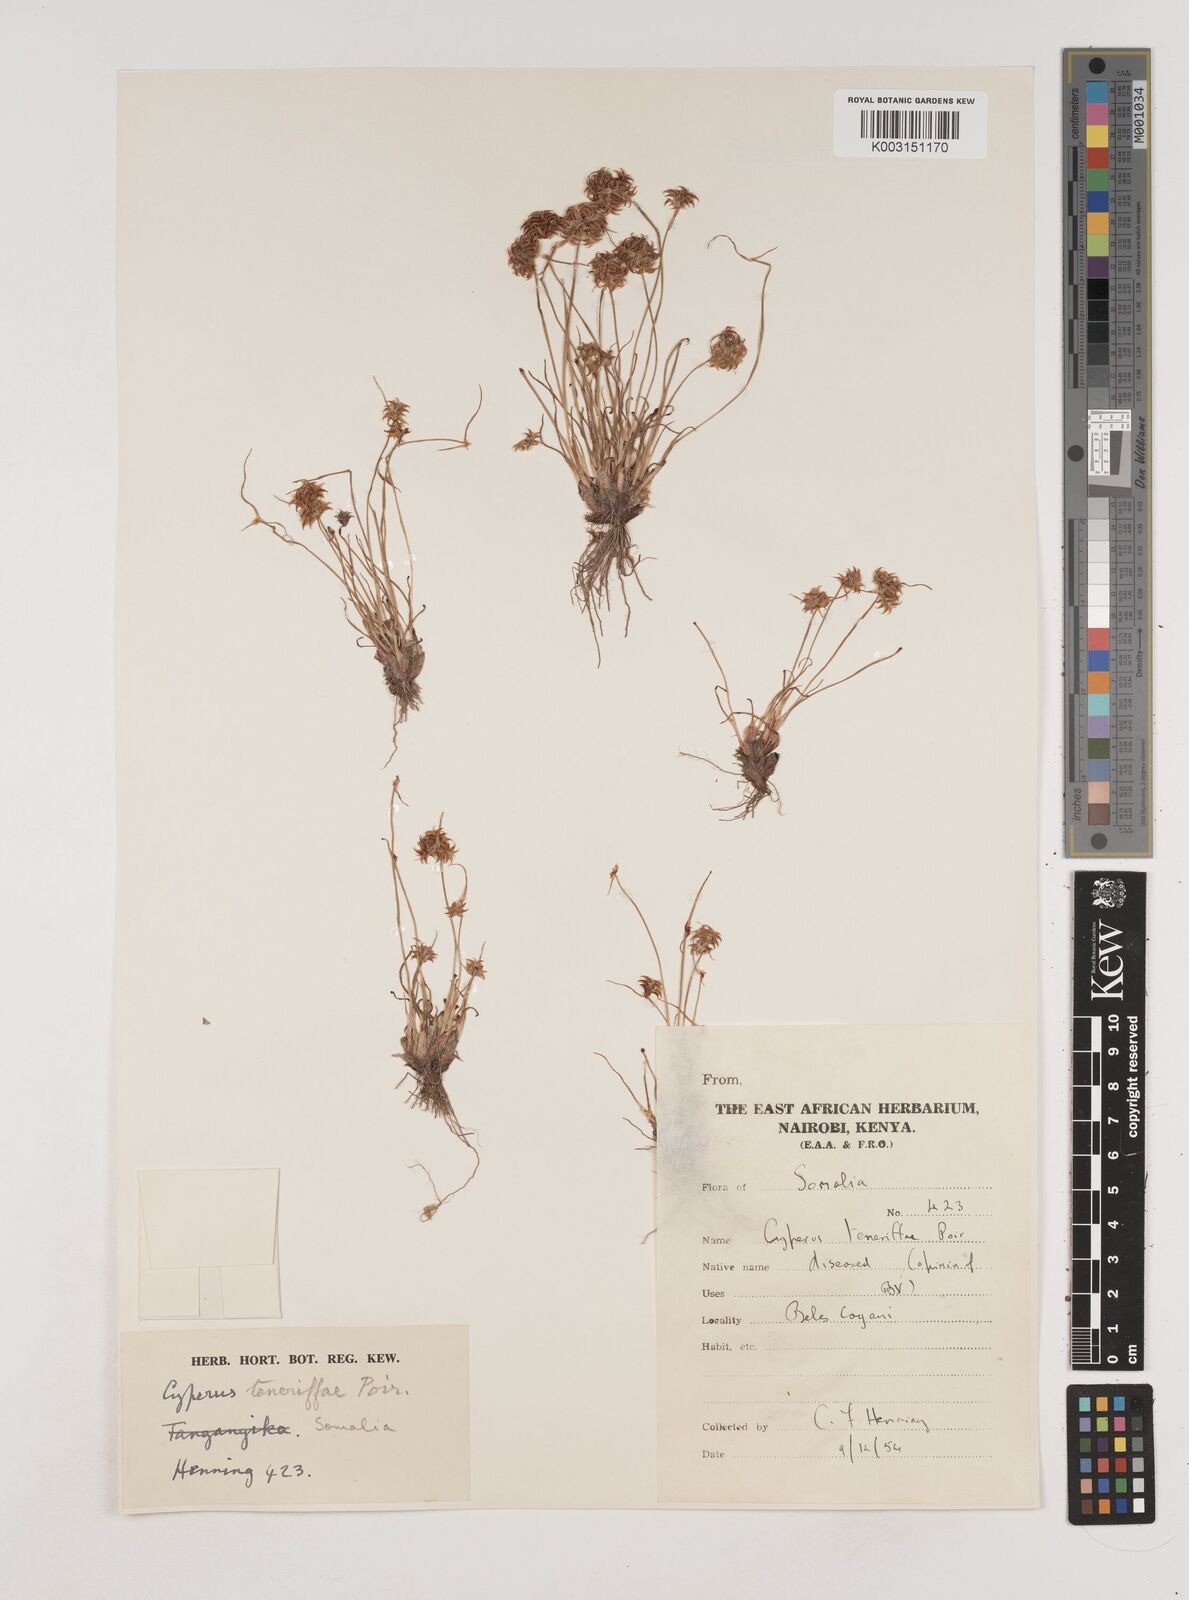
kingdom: Plantae
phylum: Tracheophyta
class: Liliopsida
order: Poales
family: Cyperaceae
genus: Cyperus
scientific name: Cyperus rubicundus
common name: Coco-grass
